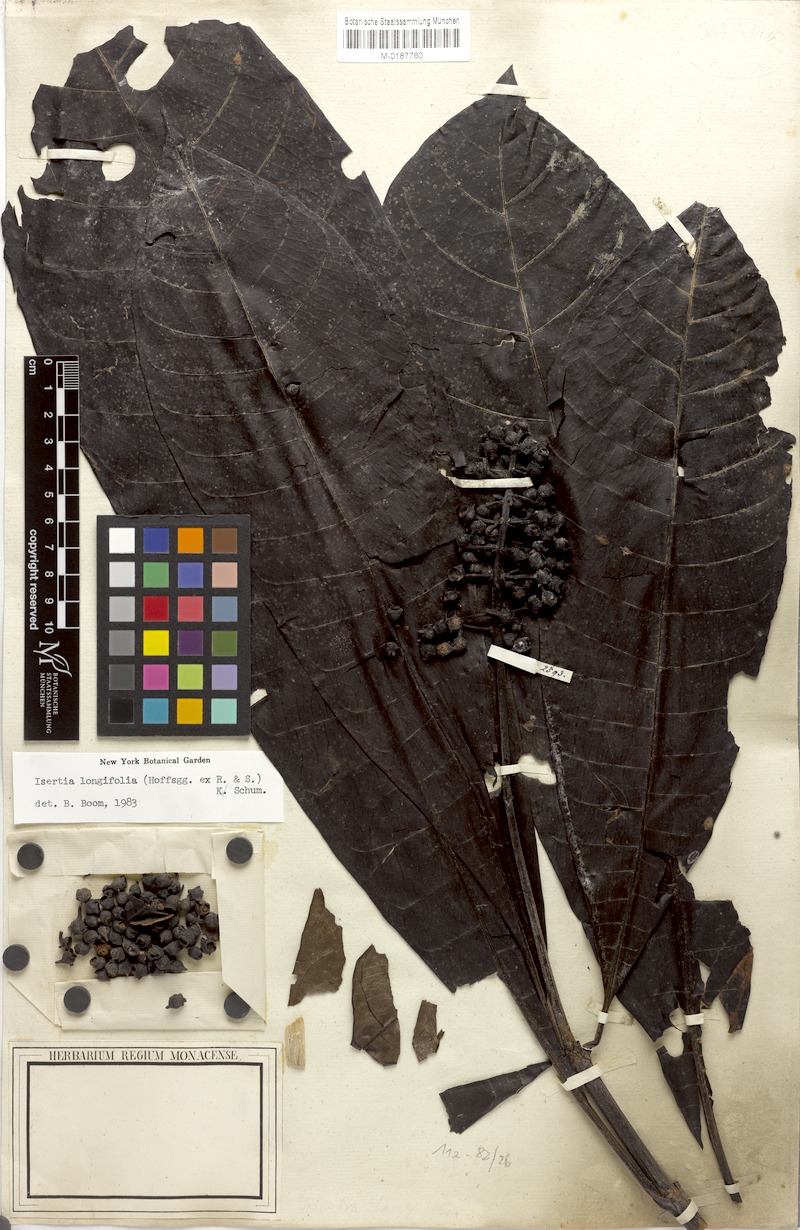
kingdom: Plantae
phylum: Tracheophyta
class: Magnoliopsida
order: Gentianales
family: Rubiaceae
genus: Isertia
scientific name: Isertia longifolia
